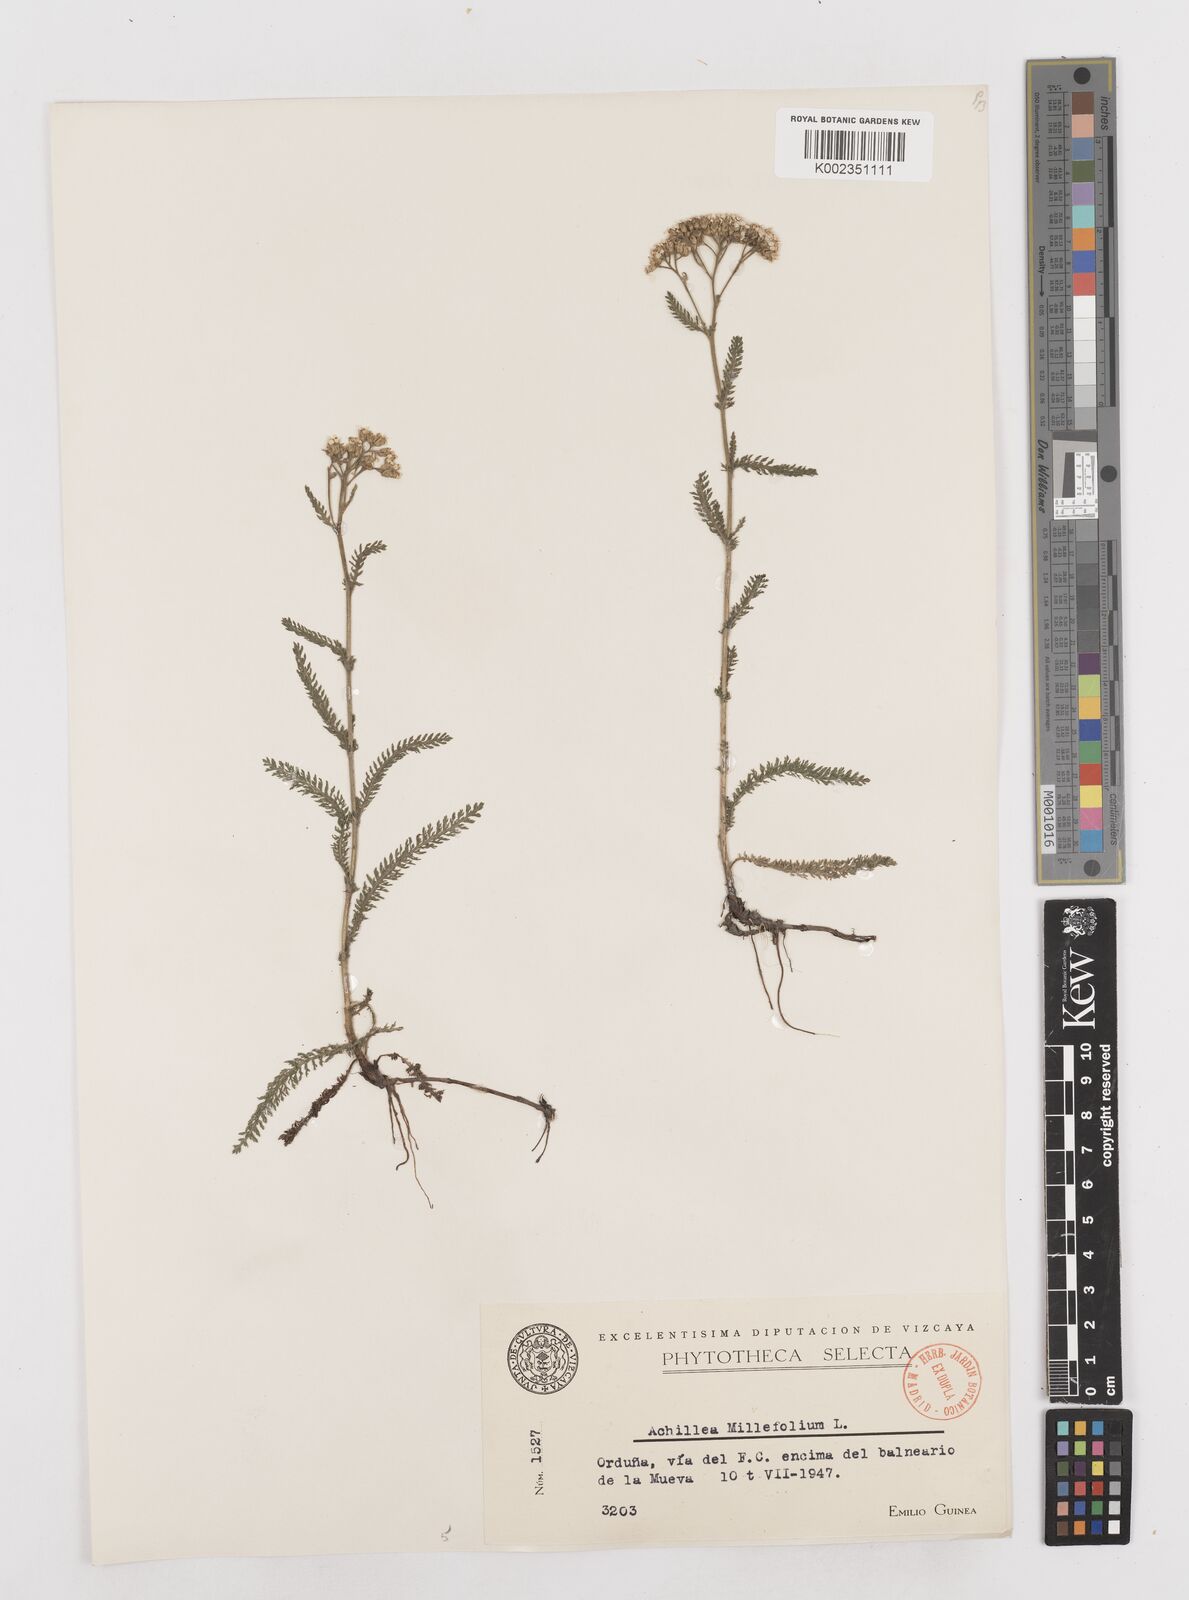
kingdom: Plantae
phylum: Tracheophyta
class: Magnoliopsida
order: Asterales
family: Asteraceae
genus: Achillea
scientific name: Achillea millefolium
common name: Yarrow
